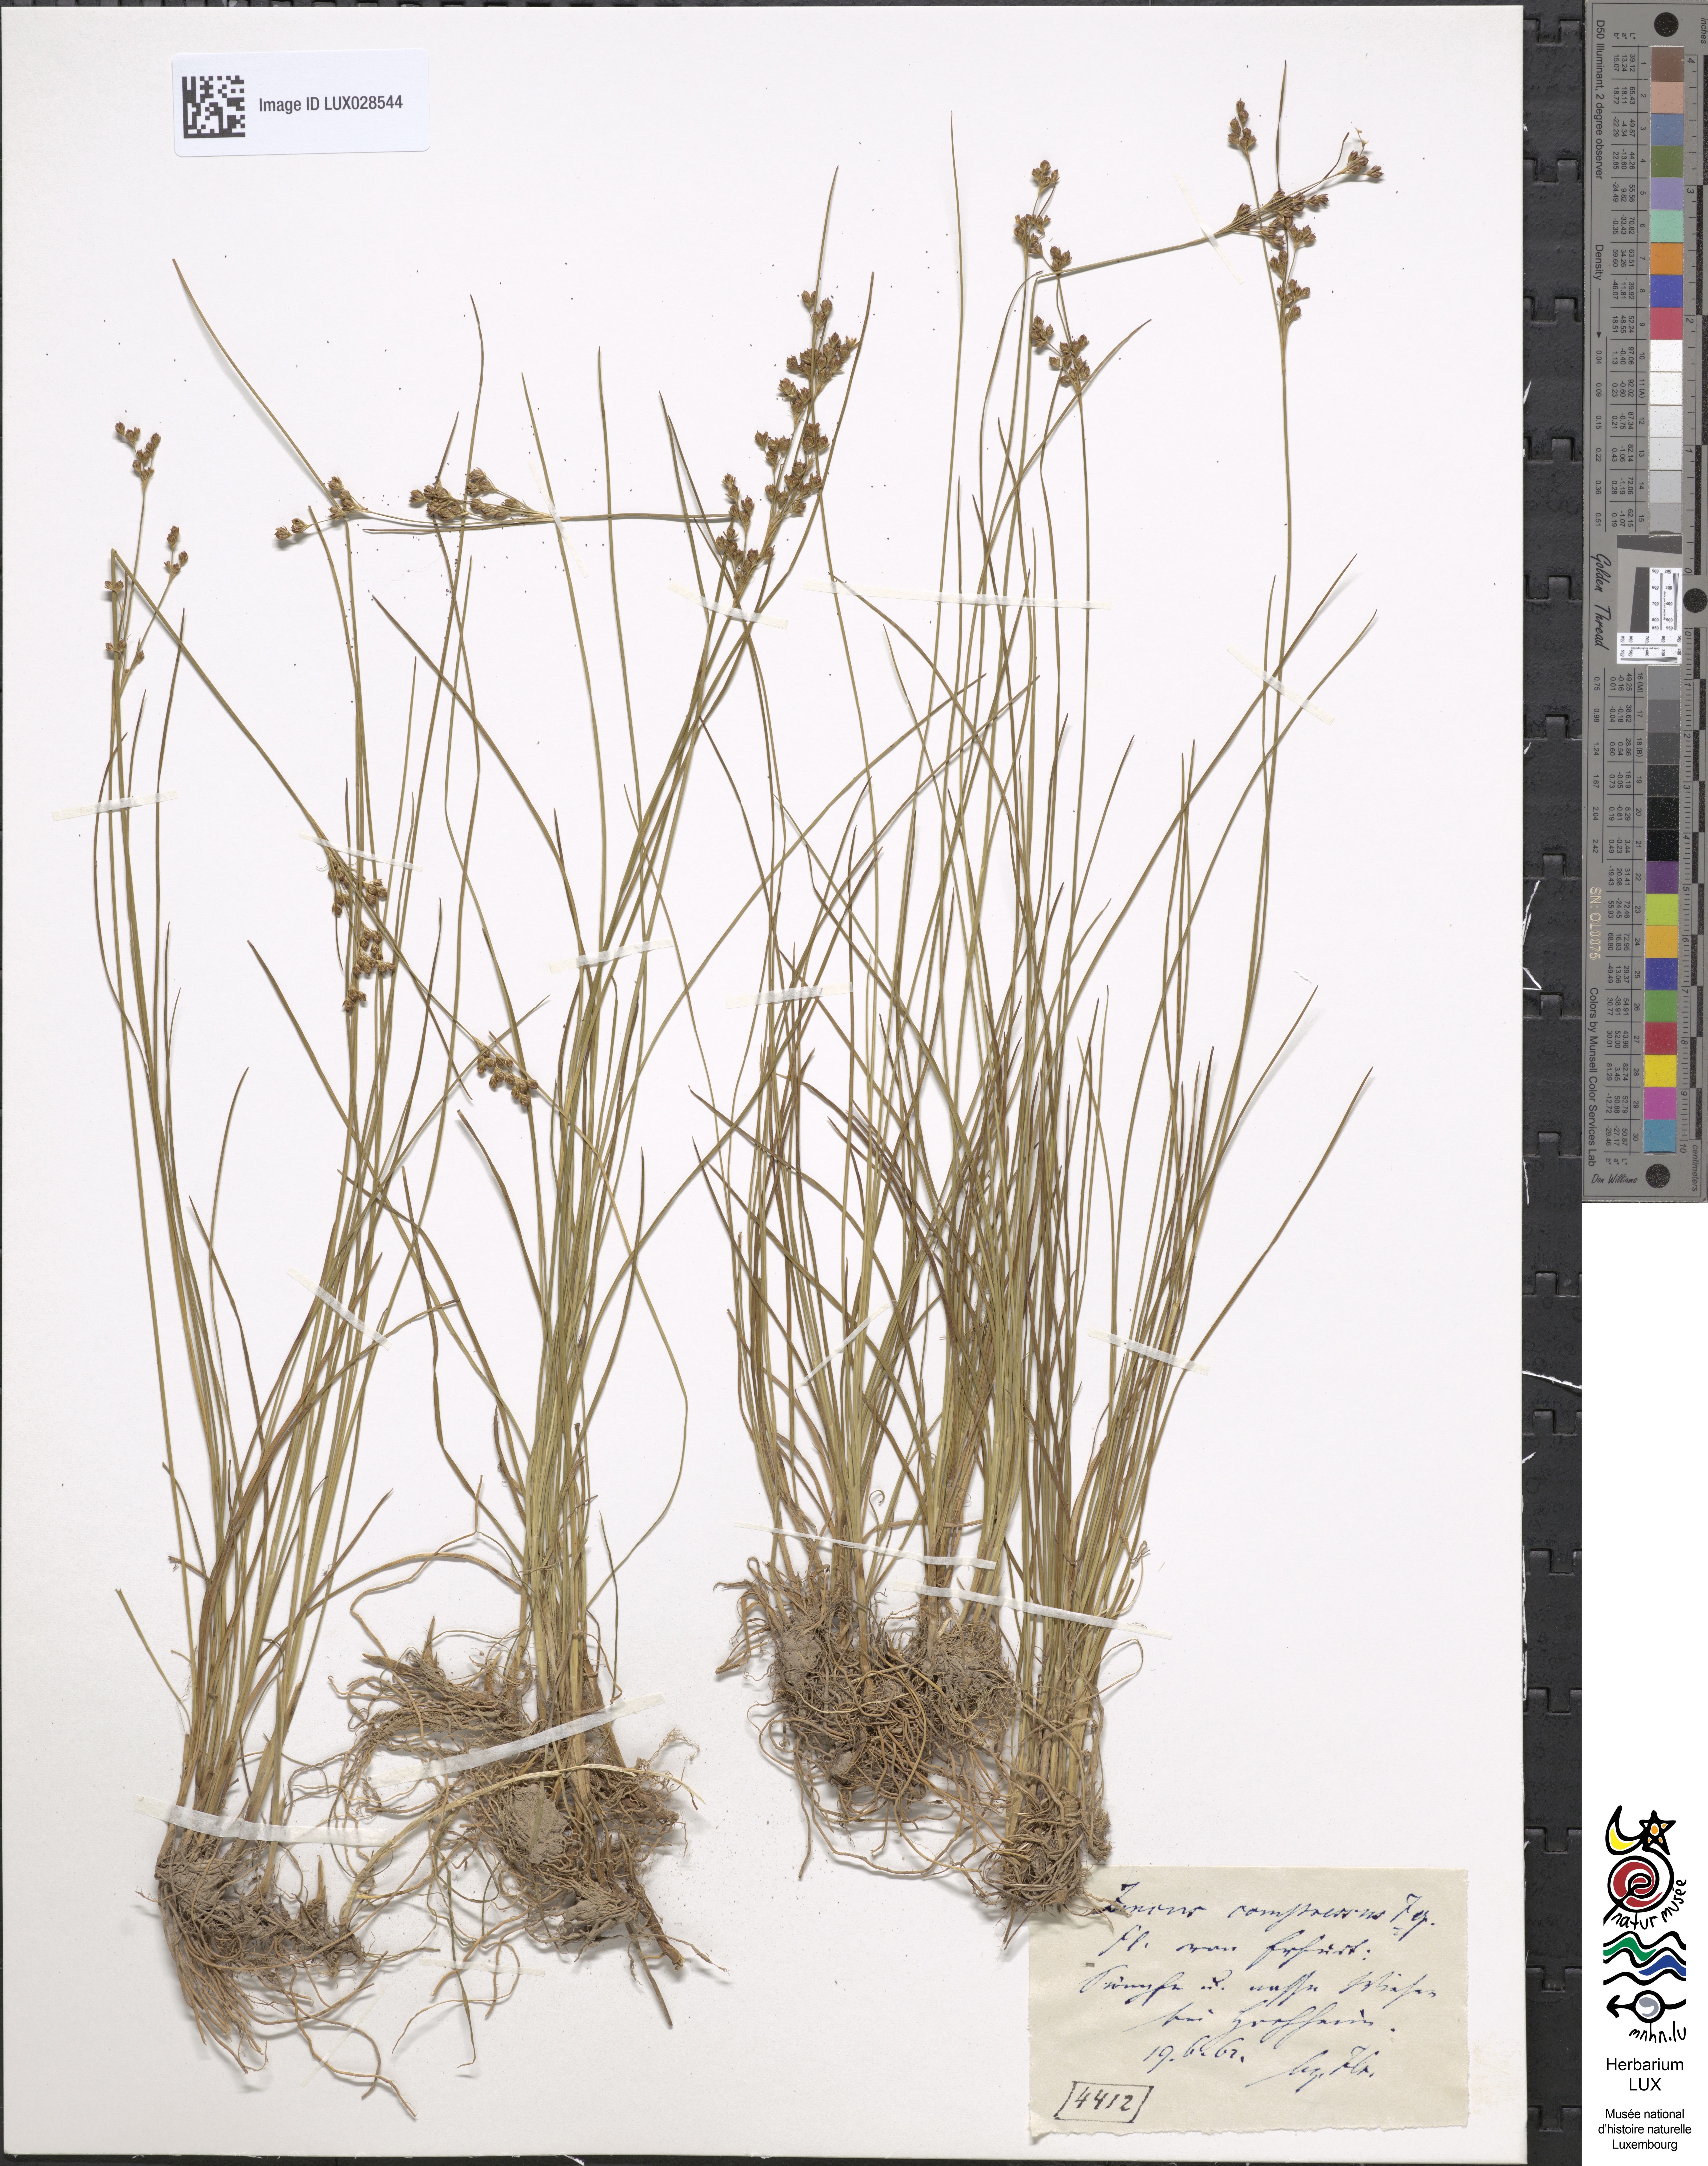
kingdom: Plantae
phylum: Tracheophyta
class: Liliopsida
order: Poales
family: Juncaceae
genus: Juncus
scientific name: Juncus compressus
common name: Round-fruited rush
